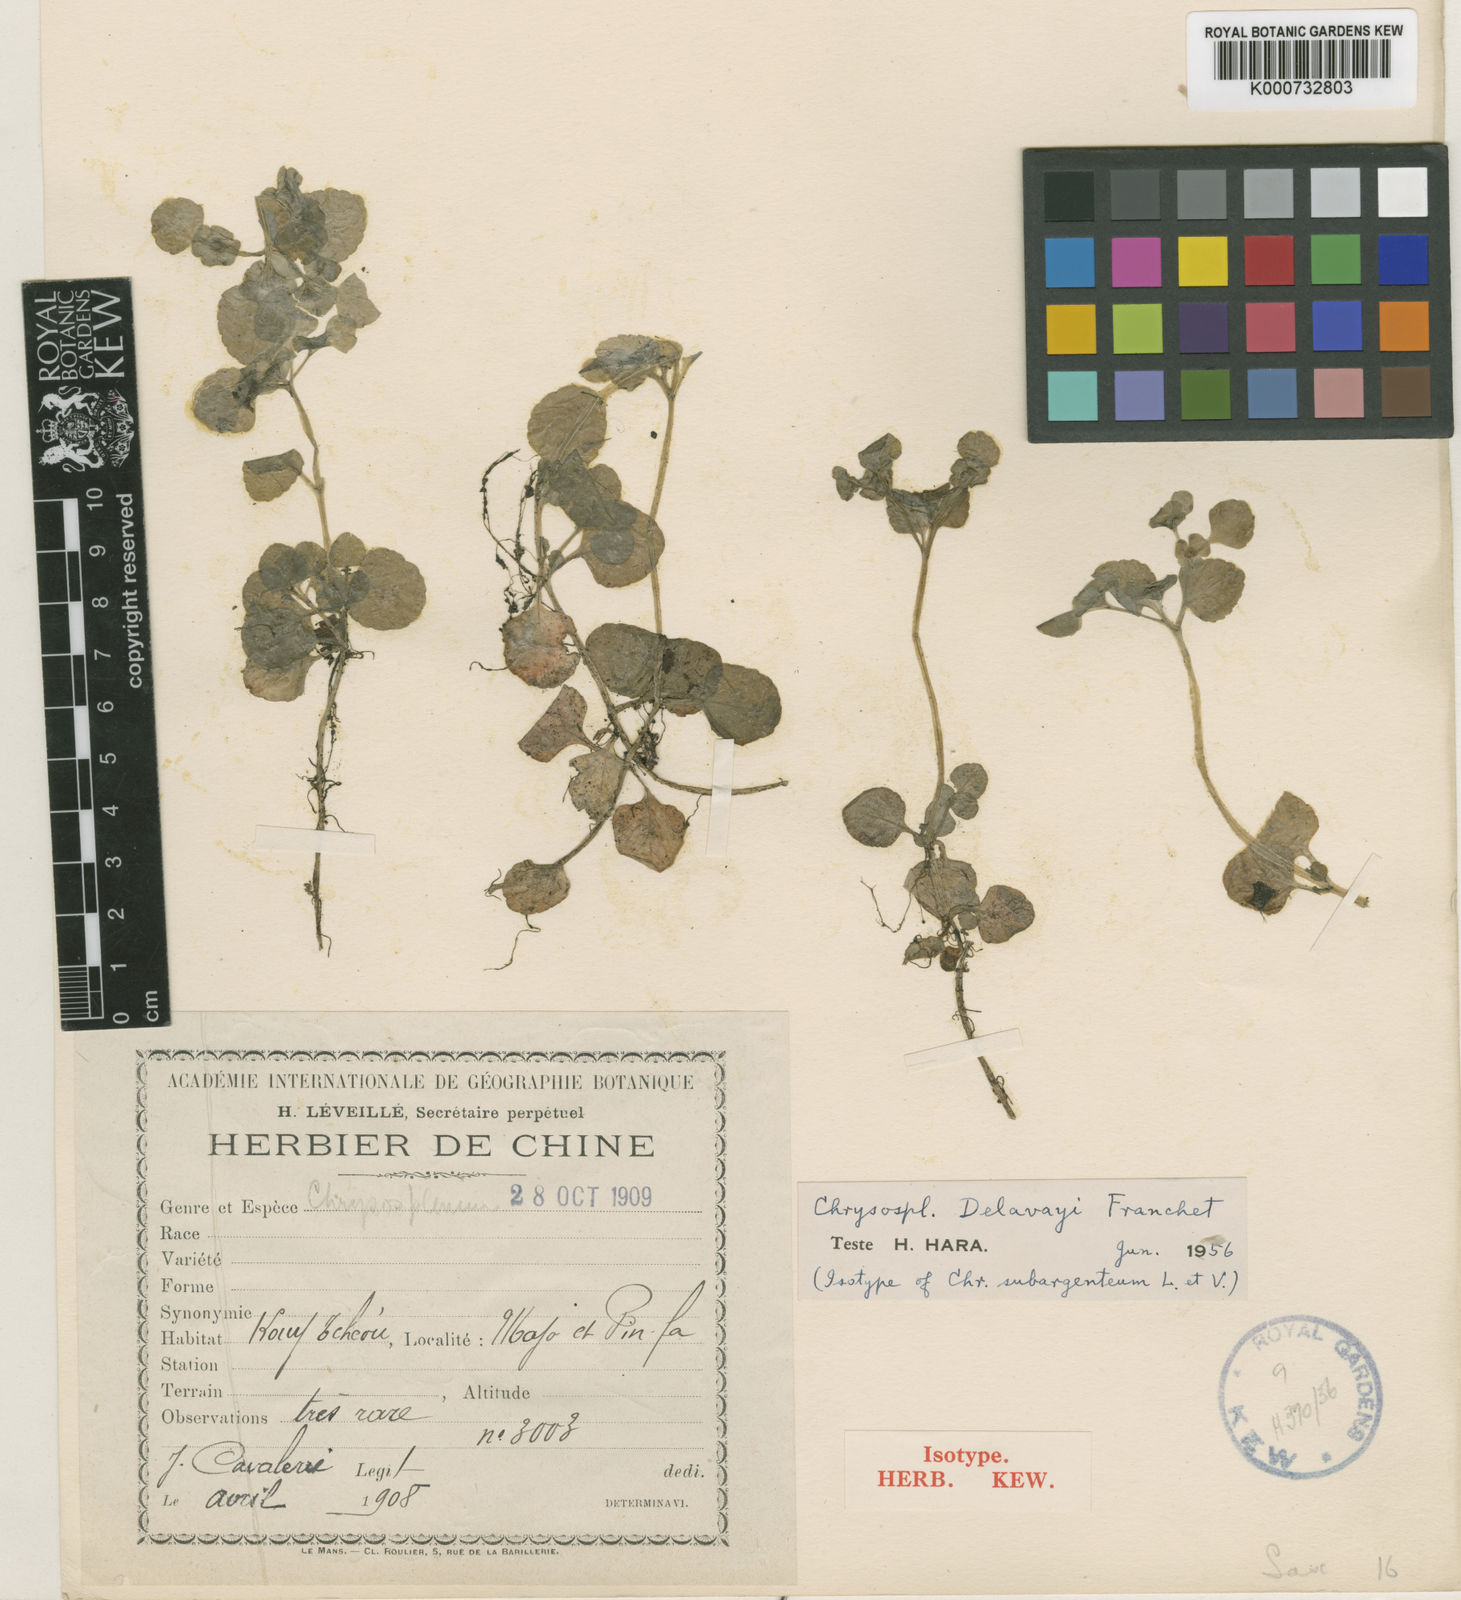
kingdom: Plantae
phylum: Tracheophyta
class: Magnoliopsida
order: Saxifragales
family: Saxifragaceae
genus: Chrysosplenium
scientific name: Chrysosplenium
